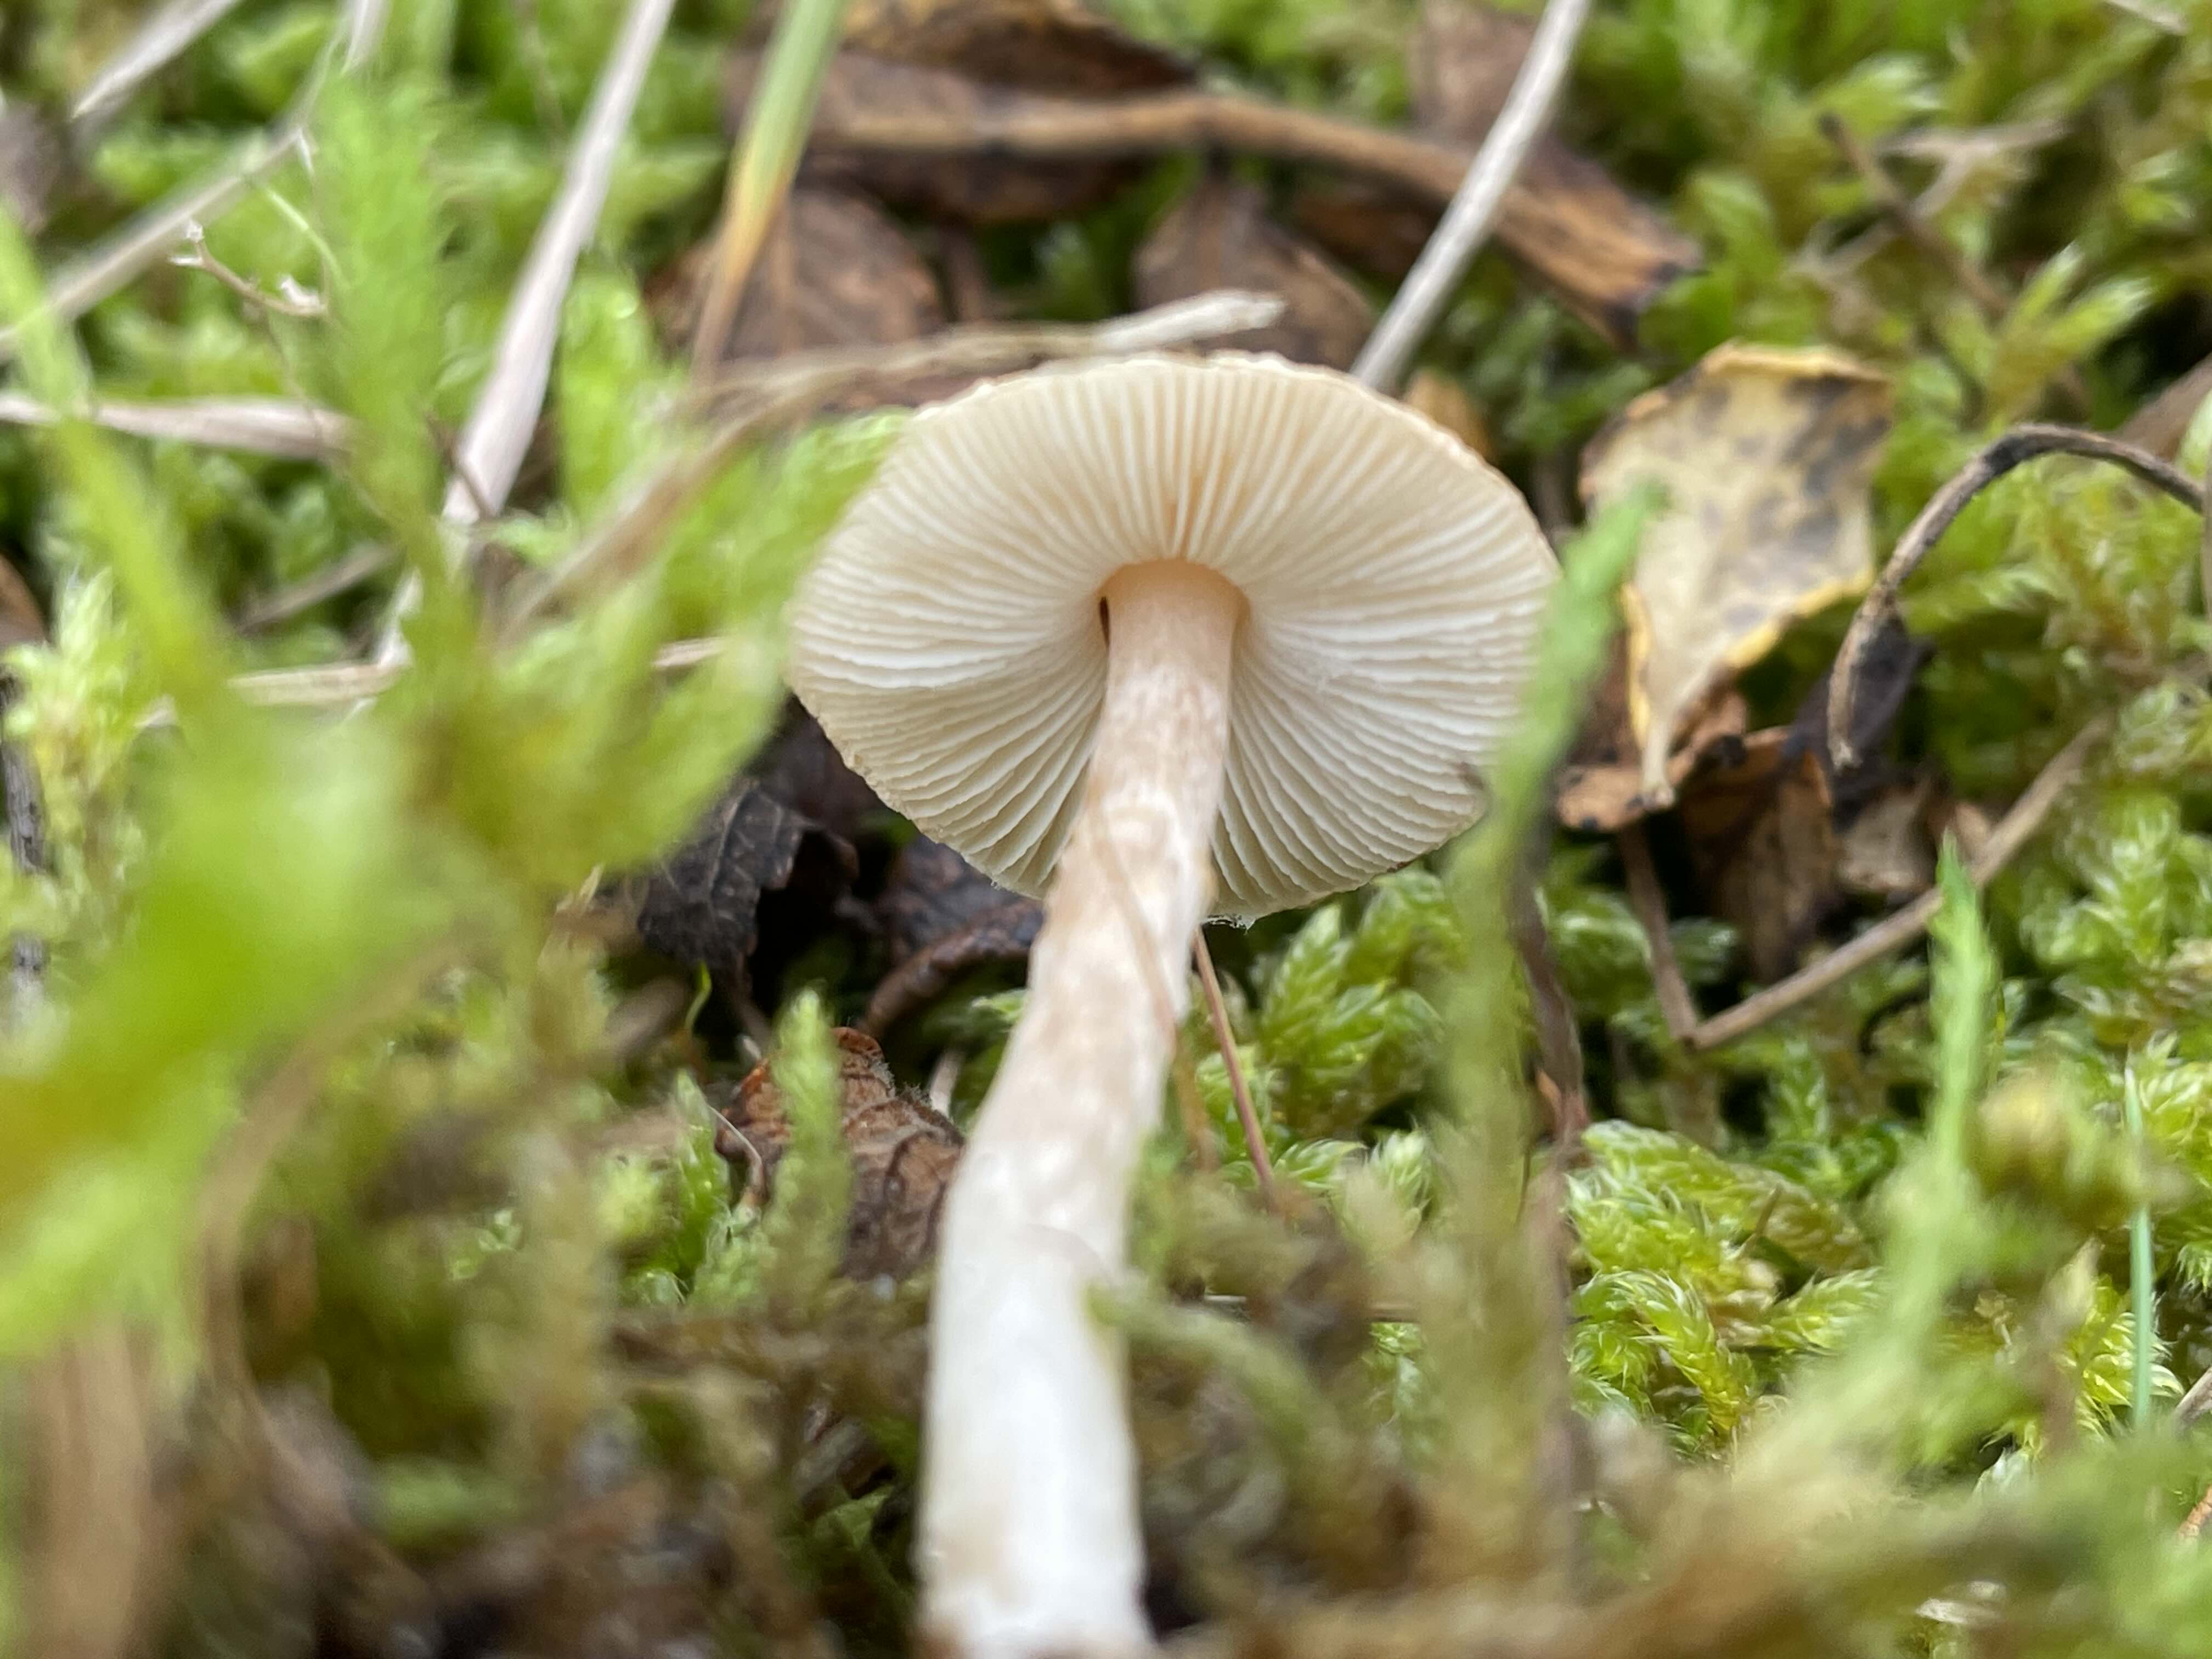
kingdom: Fungi
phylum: Basidiomycota
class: Agaricomycetes
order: Agaricales
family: Agaricaceae
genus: Lepiota
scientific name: Lepiota
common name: parasolhat
